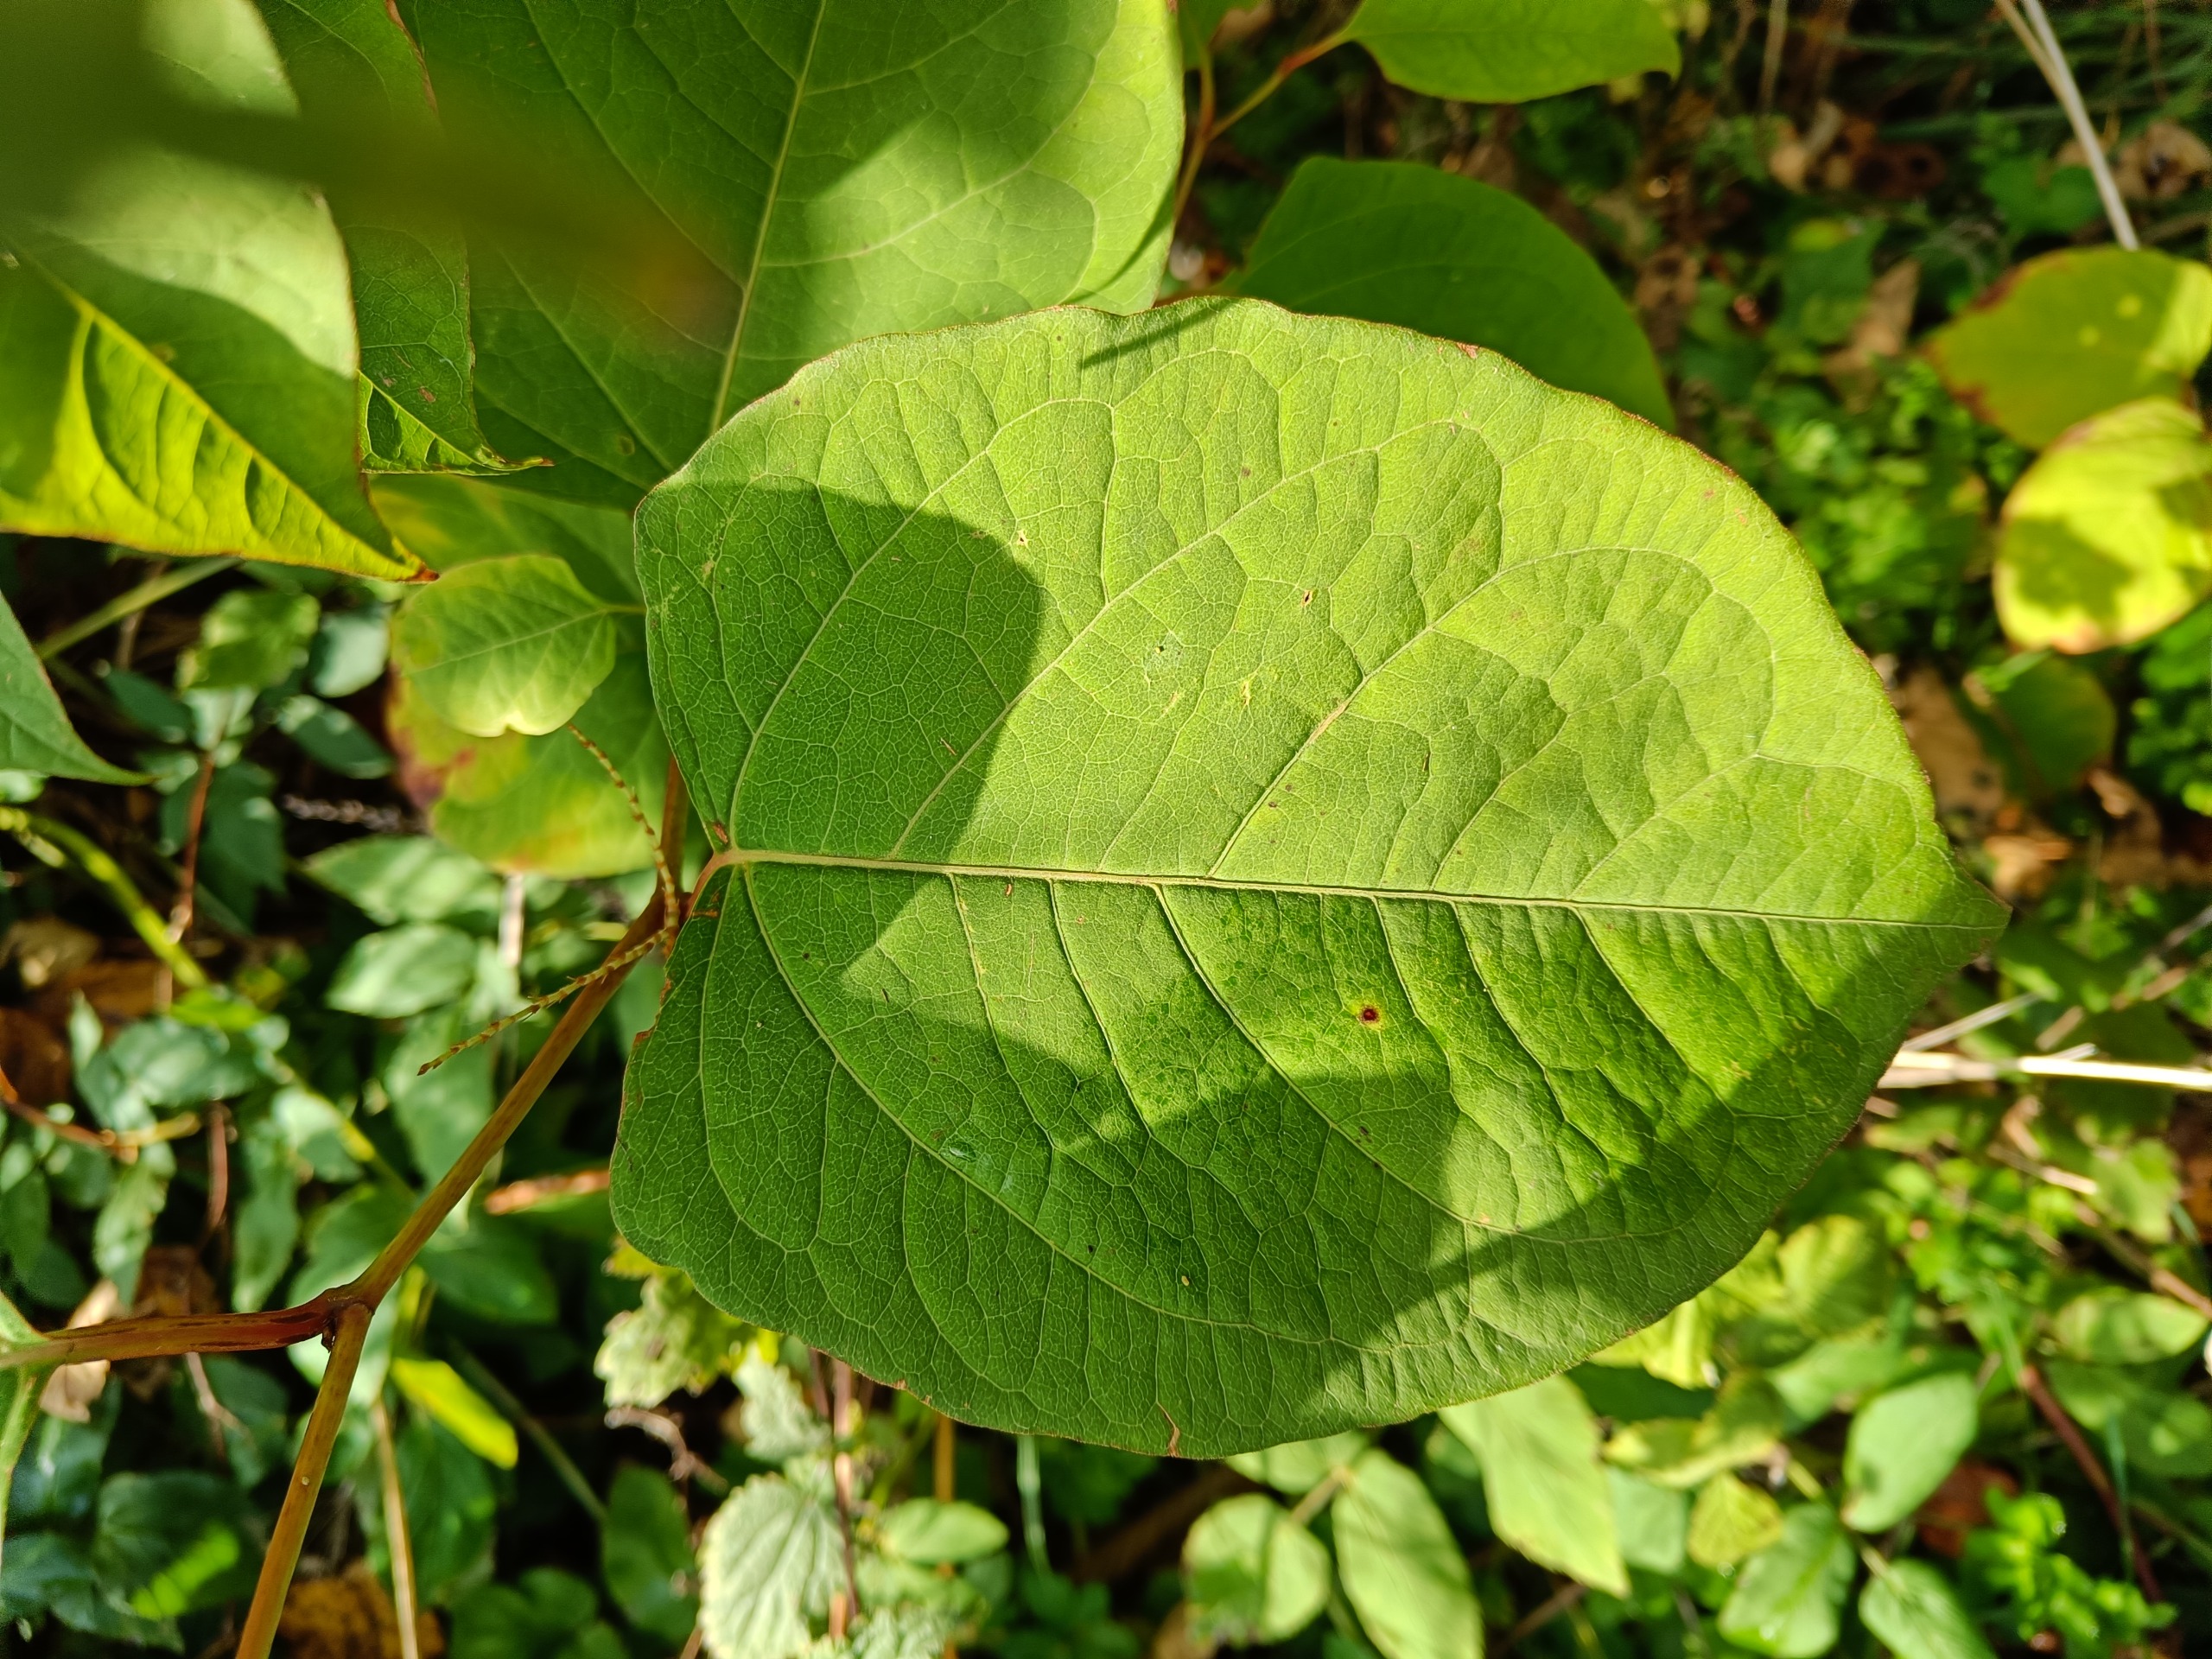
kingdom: Plantae
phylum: Tracheophyta
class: Magnoliopsida
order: Caryophyllales
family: Polygonaceae
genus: Reynoutria
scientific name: Reynoutria japonica
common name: Japan-pileurt
